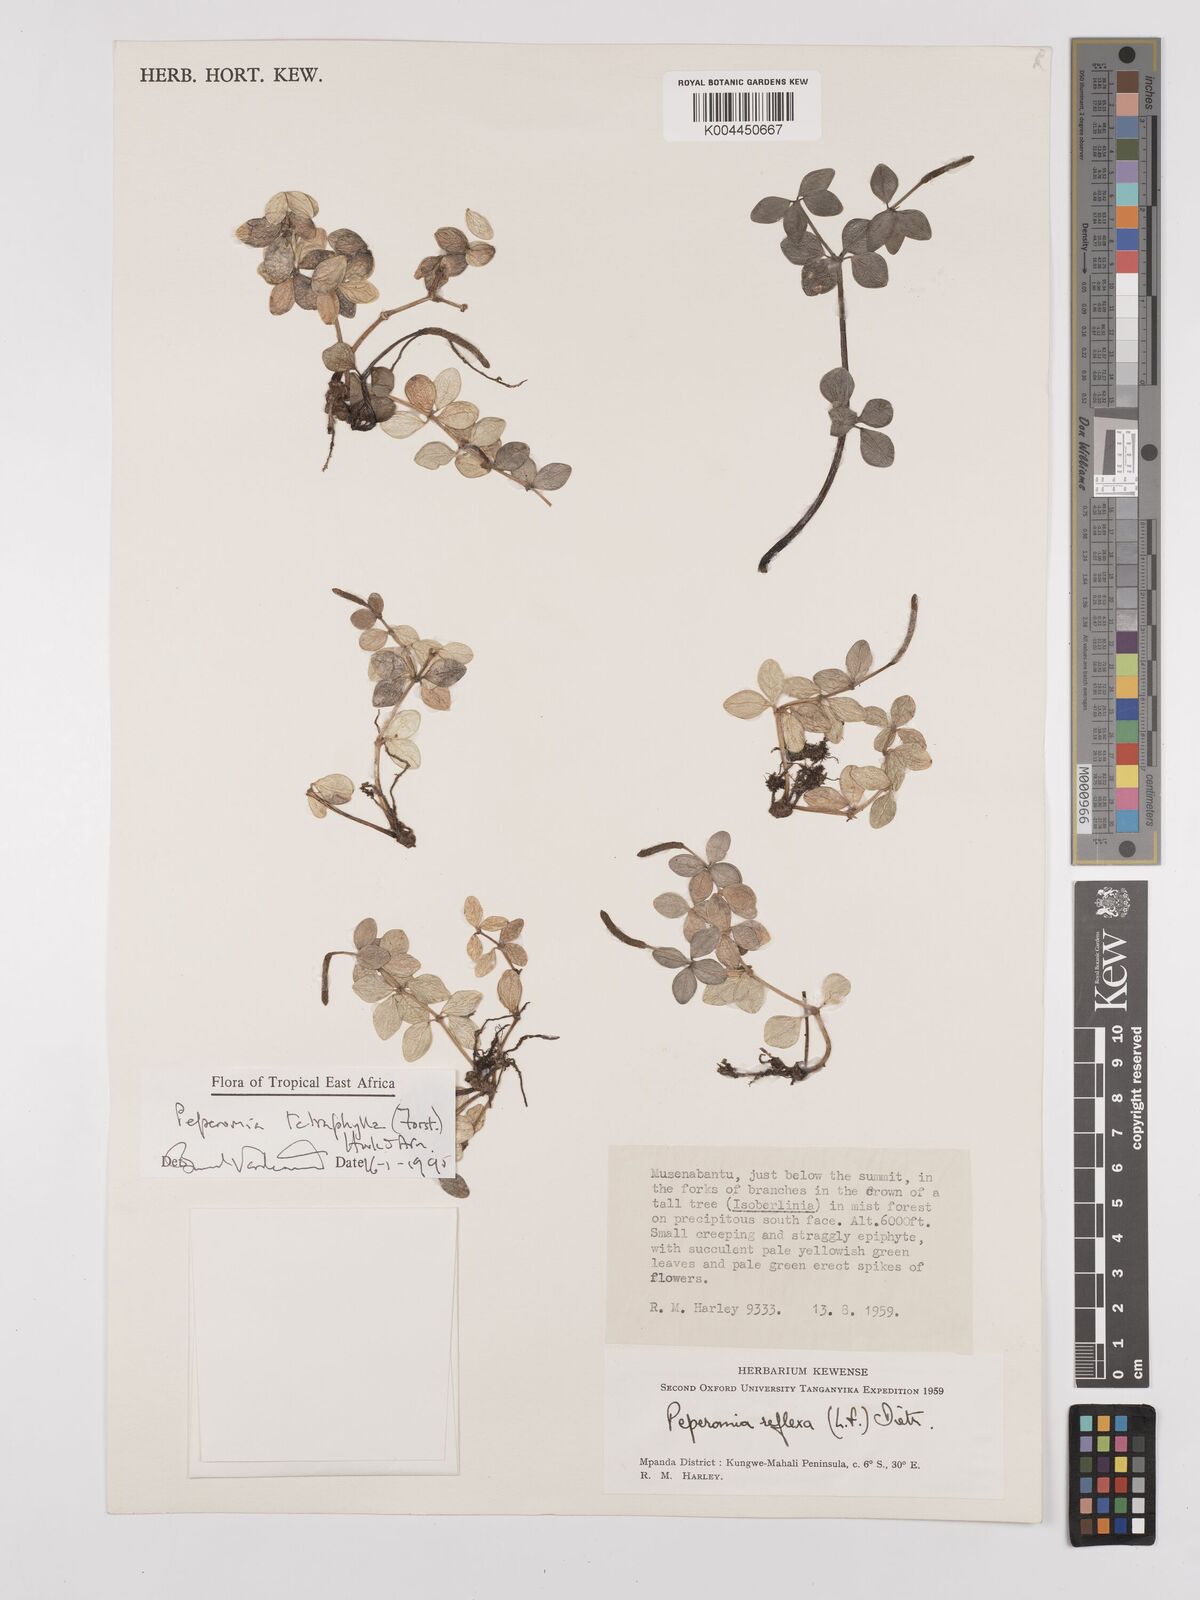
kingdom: Plantae
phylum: Tracheophyta
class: Magnoliopsida
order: Piperales
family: Piperaceae
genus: Peperomia
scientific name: Peperomia tetraphylla
